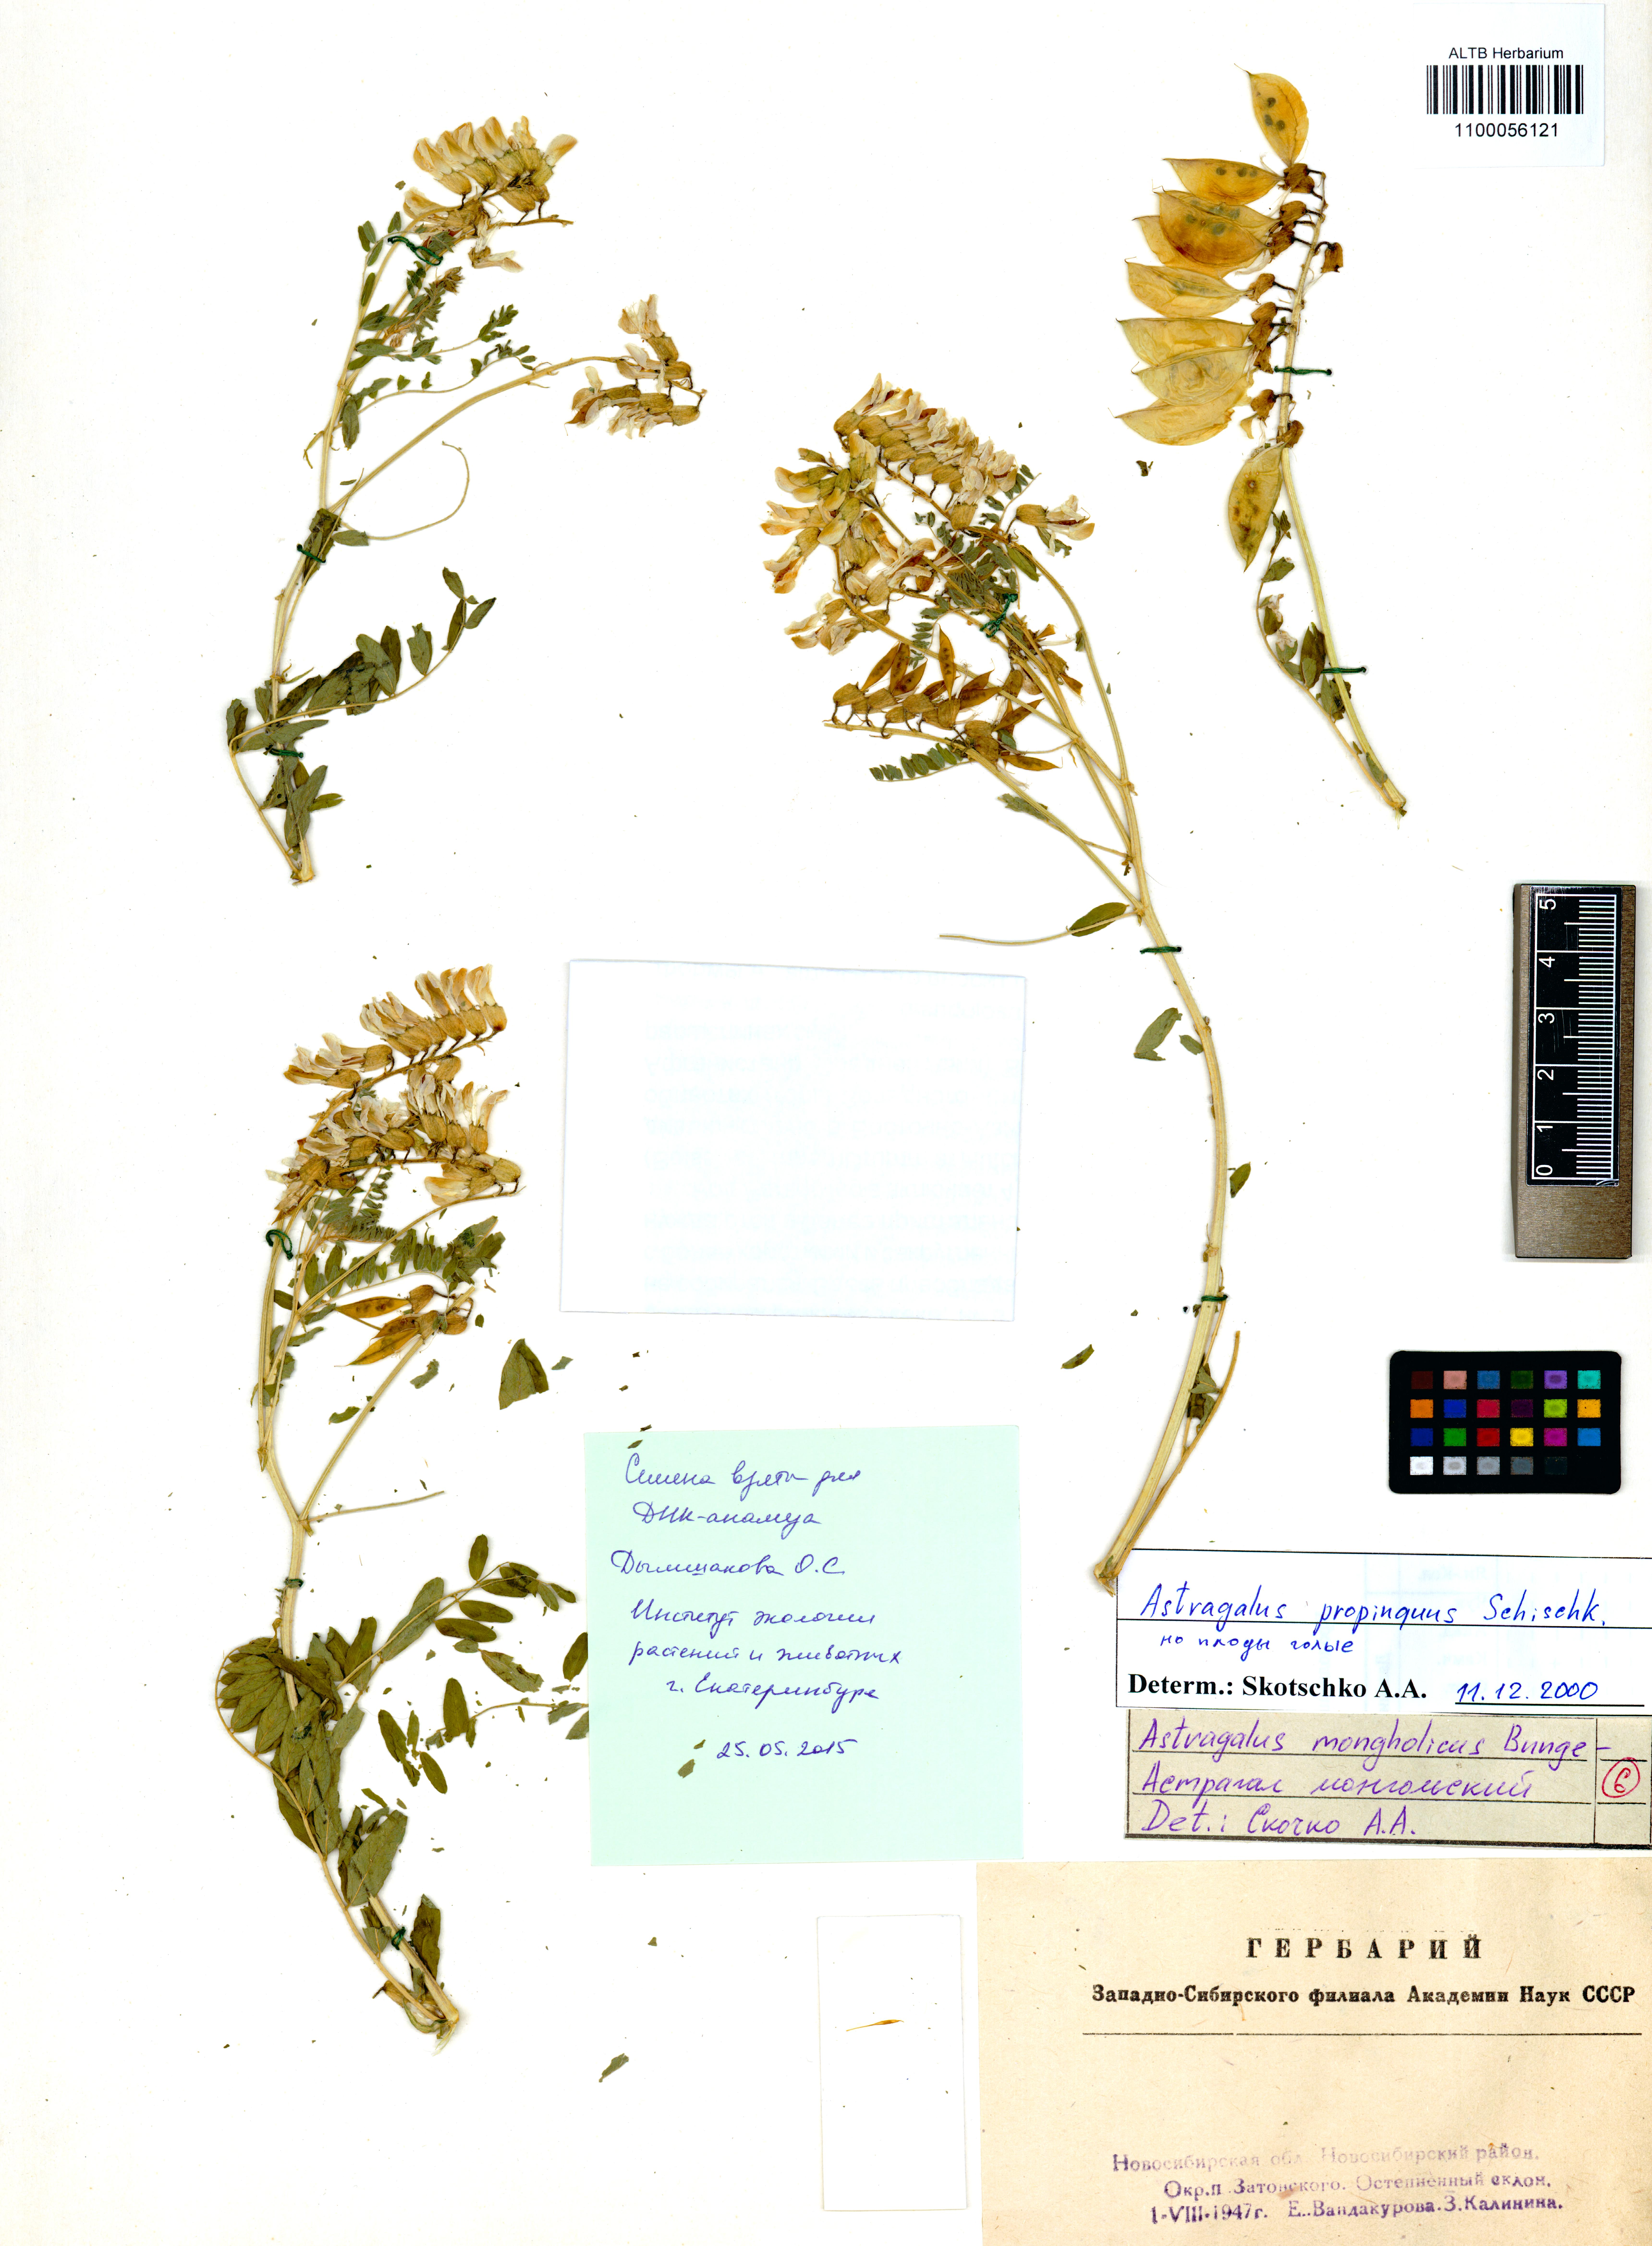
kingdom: Plantae
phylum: Tracheophyta
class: Magnoliopsida
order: Fabales
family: Fabaceae
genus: Astragalus
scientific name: Astragalus mongholicus
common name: Membranous milk-vetch
